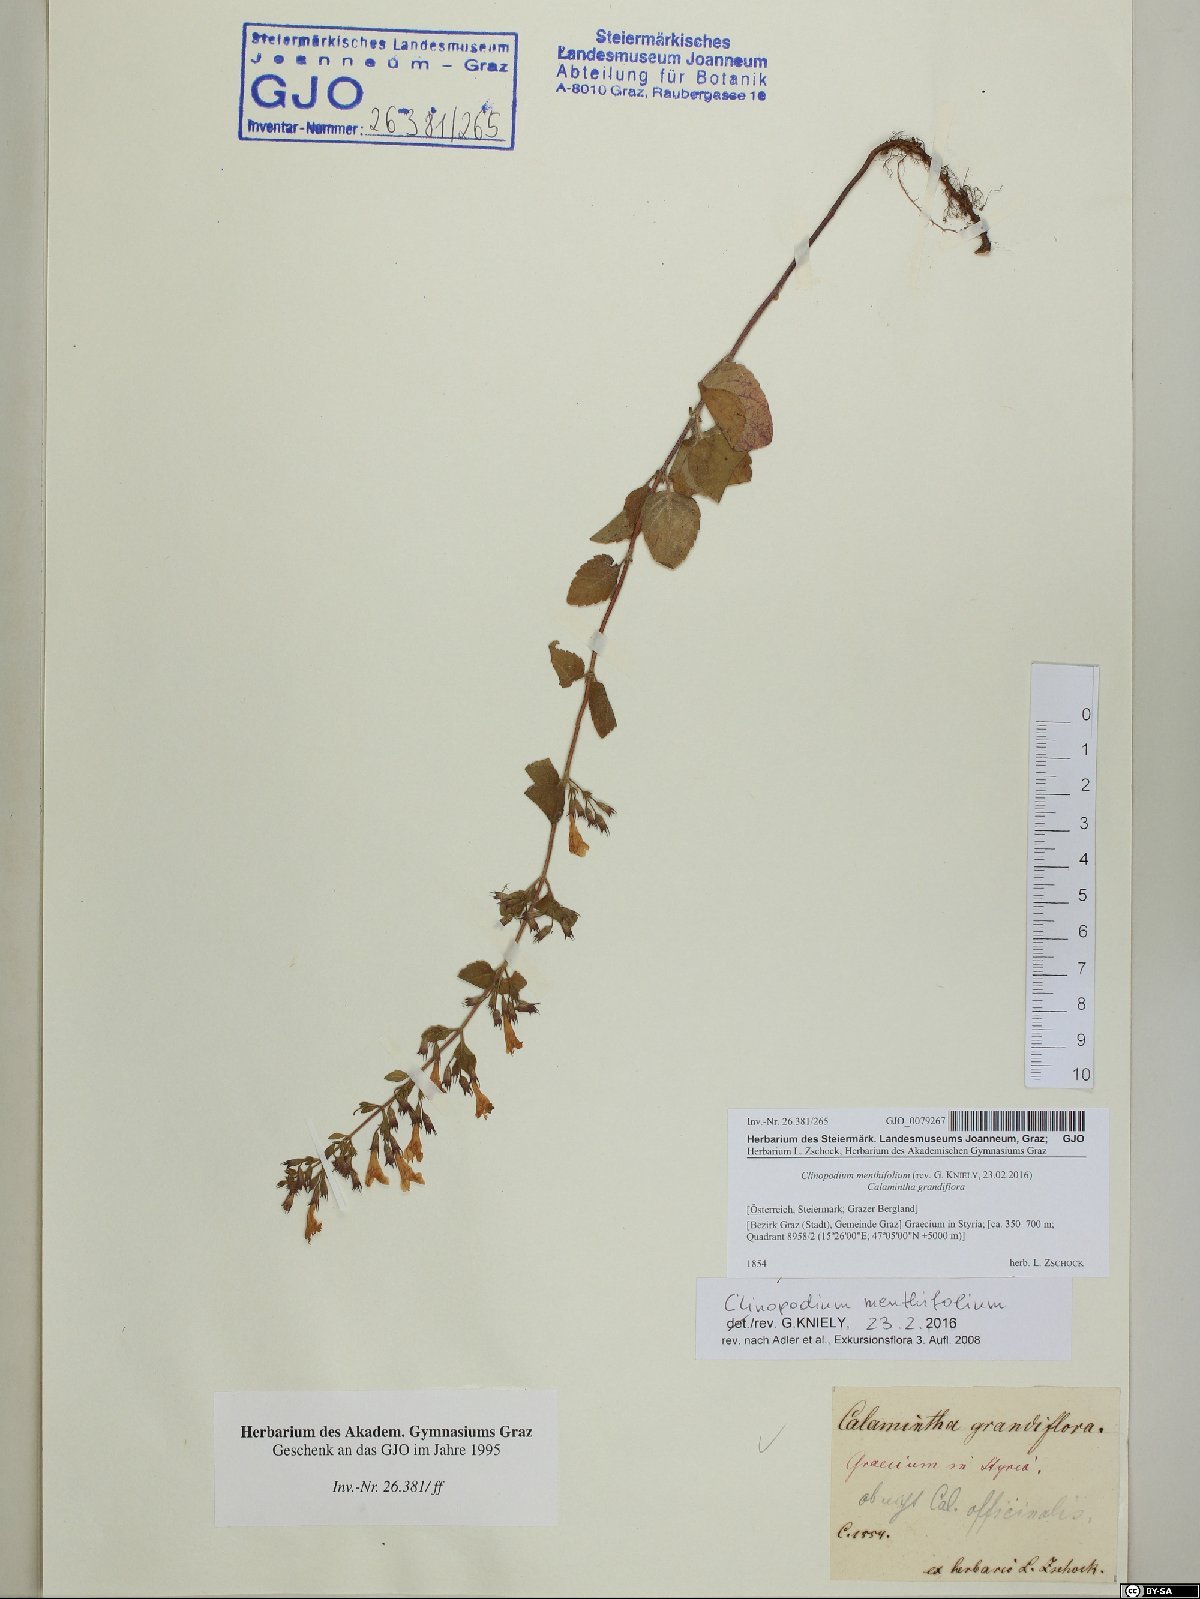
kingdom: Plantae
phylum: Tracheophyta
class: Magnoliopsida
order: Lamiales
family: Lamiaceae
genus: Clinopodium
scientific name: Clinopodium menthifolium
